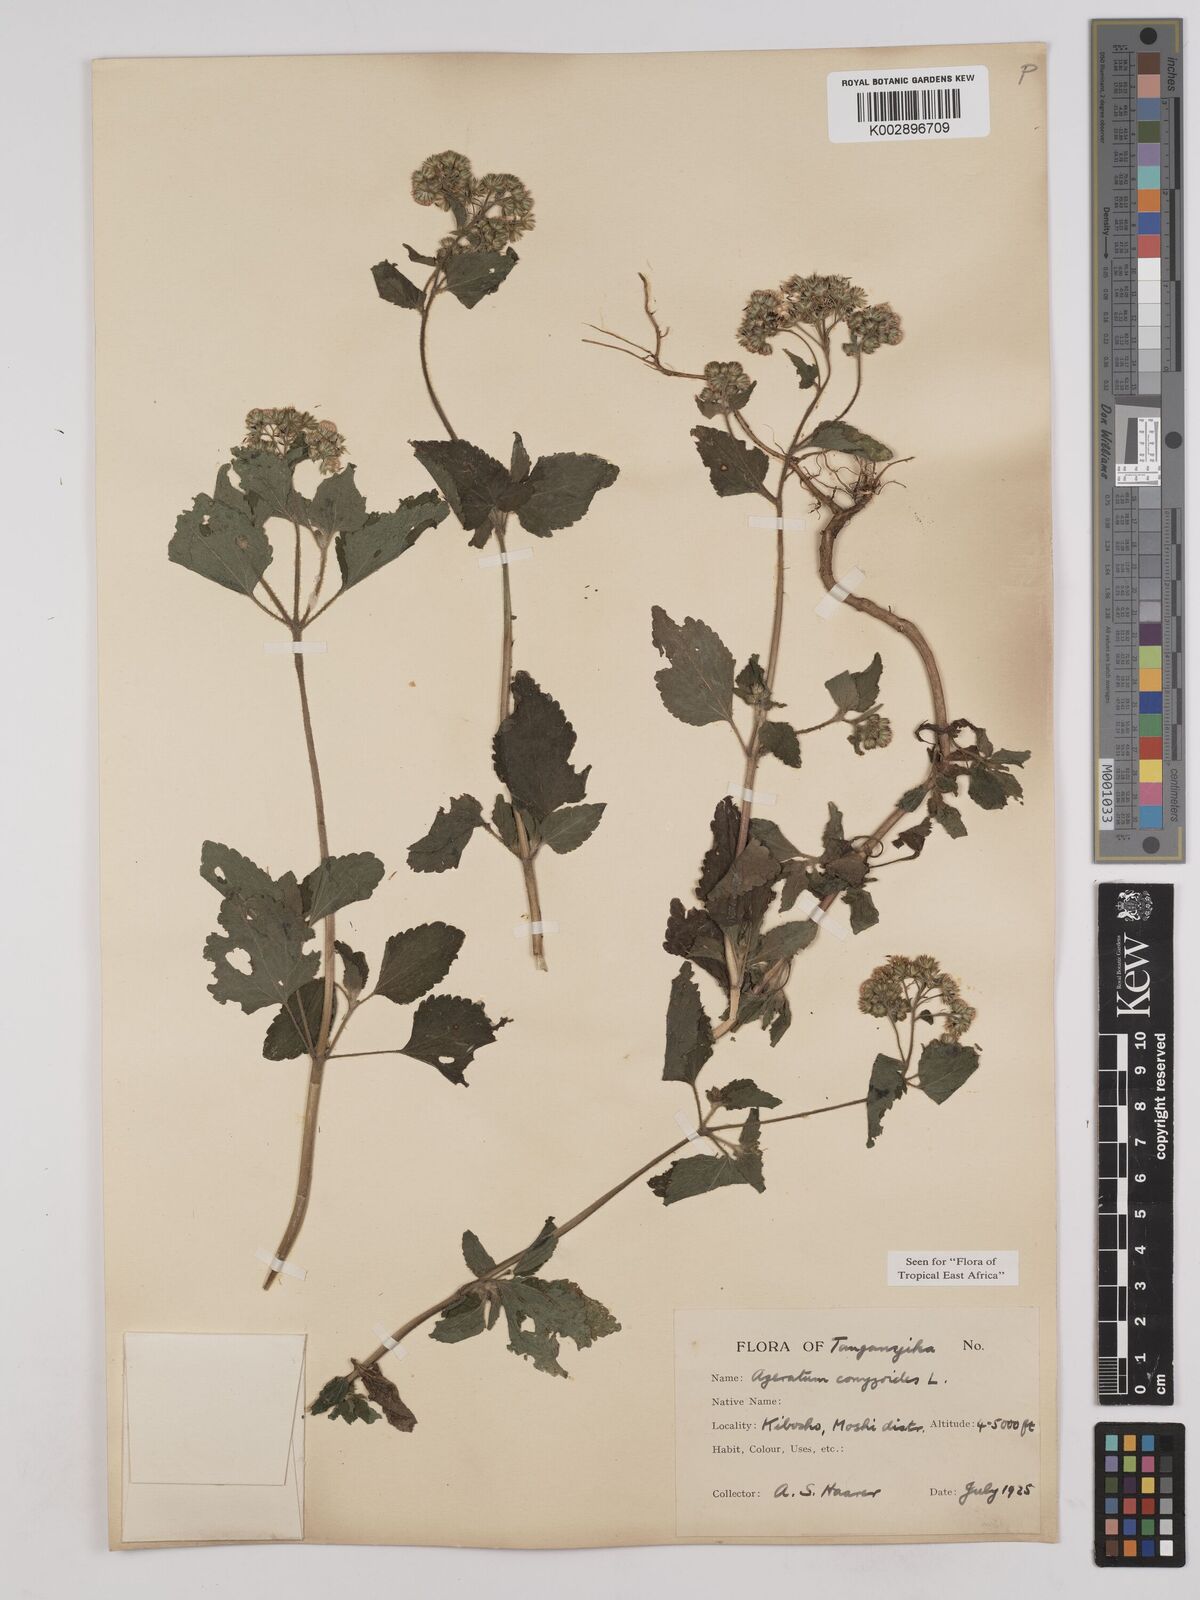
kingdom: Plantae
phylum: Tracheophyta
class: Magnoliopsida
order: Asterales
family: Asteraceae
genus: Ageratum
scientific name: Ageratum conyzoides
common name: Tropical whiteweed
